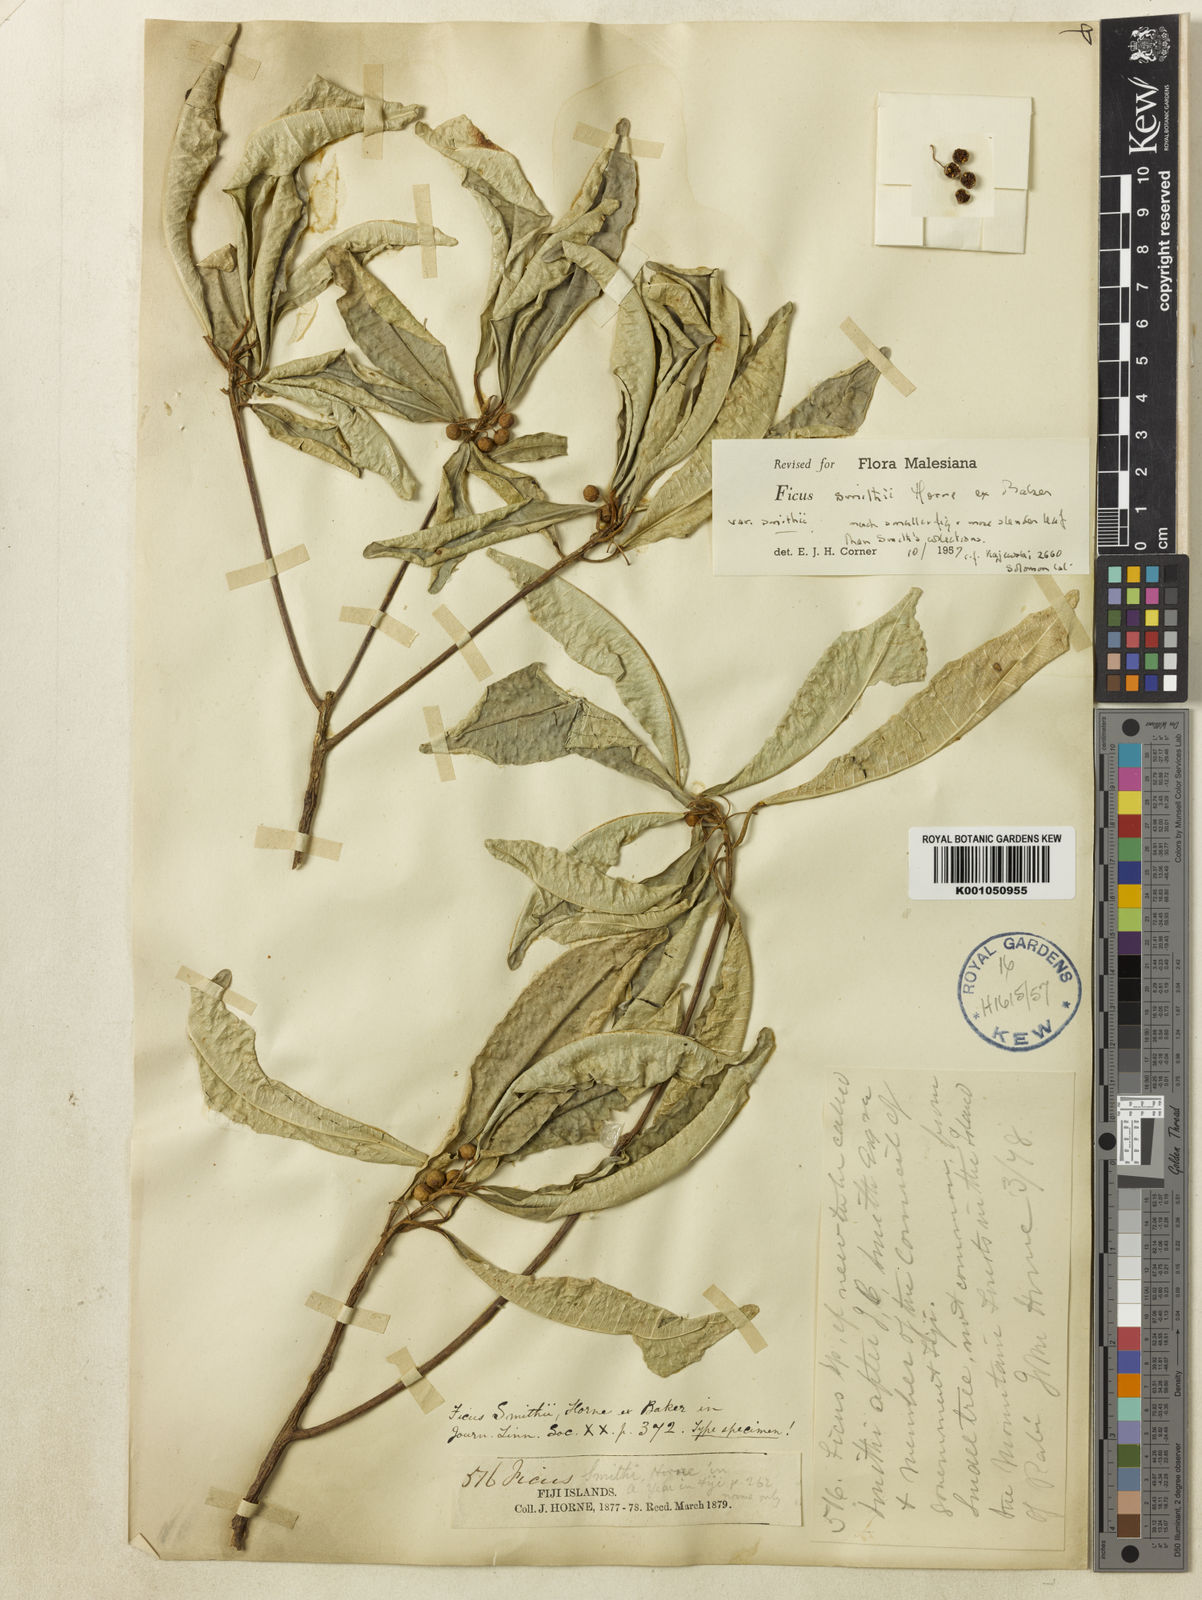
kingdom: Plantae
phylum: Tracheophyta
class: Magnoliopsida
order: Rosales
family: Moraceae
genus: Ficus
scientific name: Ficus smithii
